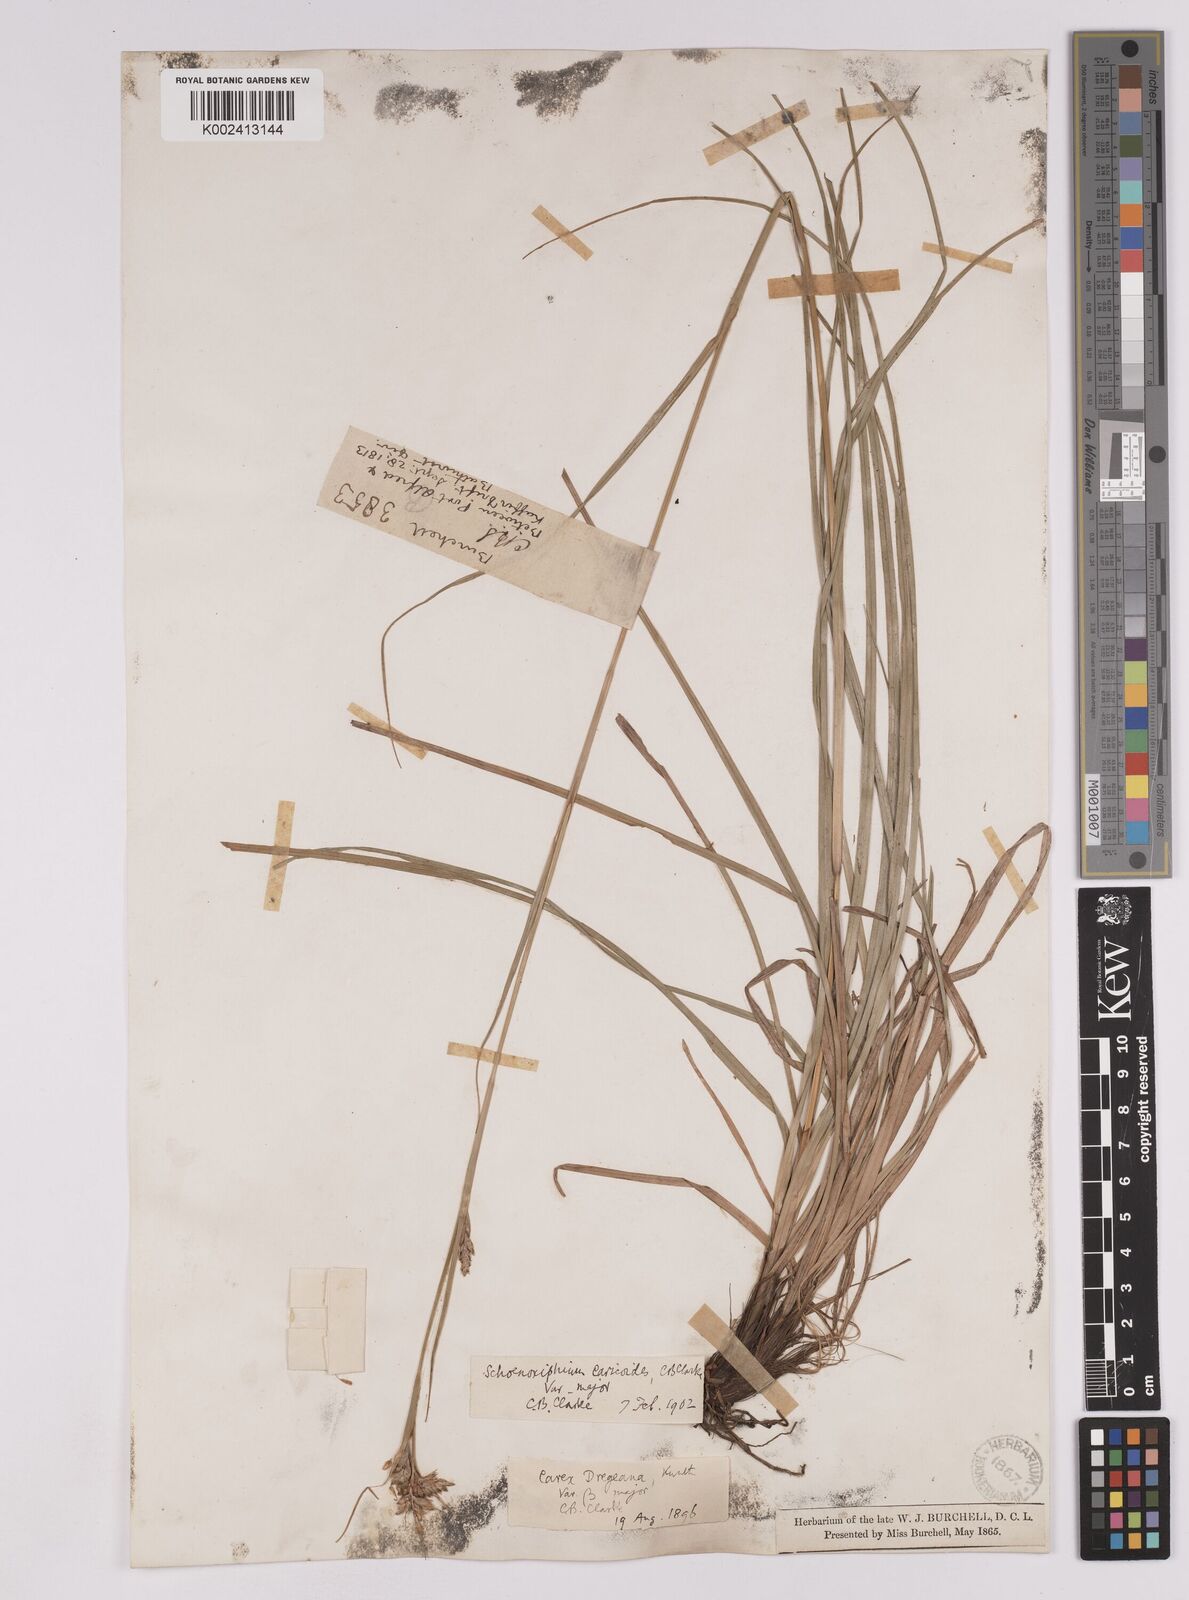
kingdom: Plantae
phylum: Tracheophyta
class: Liliopsida
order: Poales
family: Cyperaceae
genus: Carex
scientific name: Carex spartea
